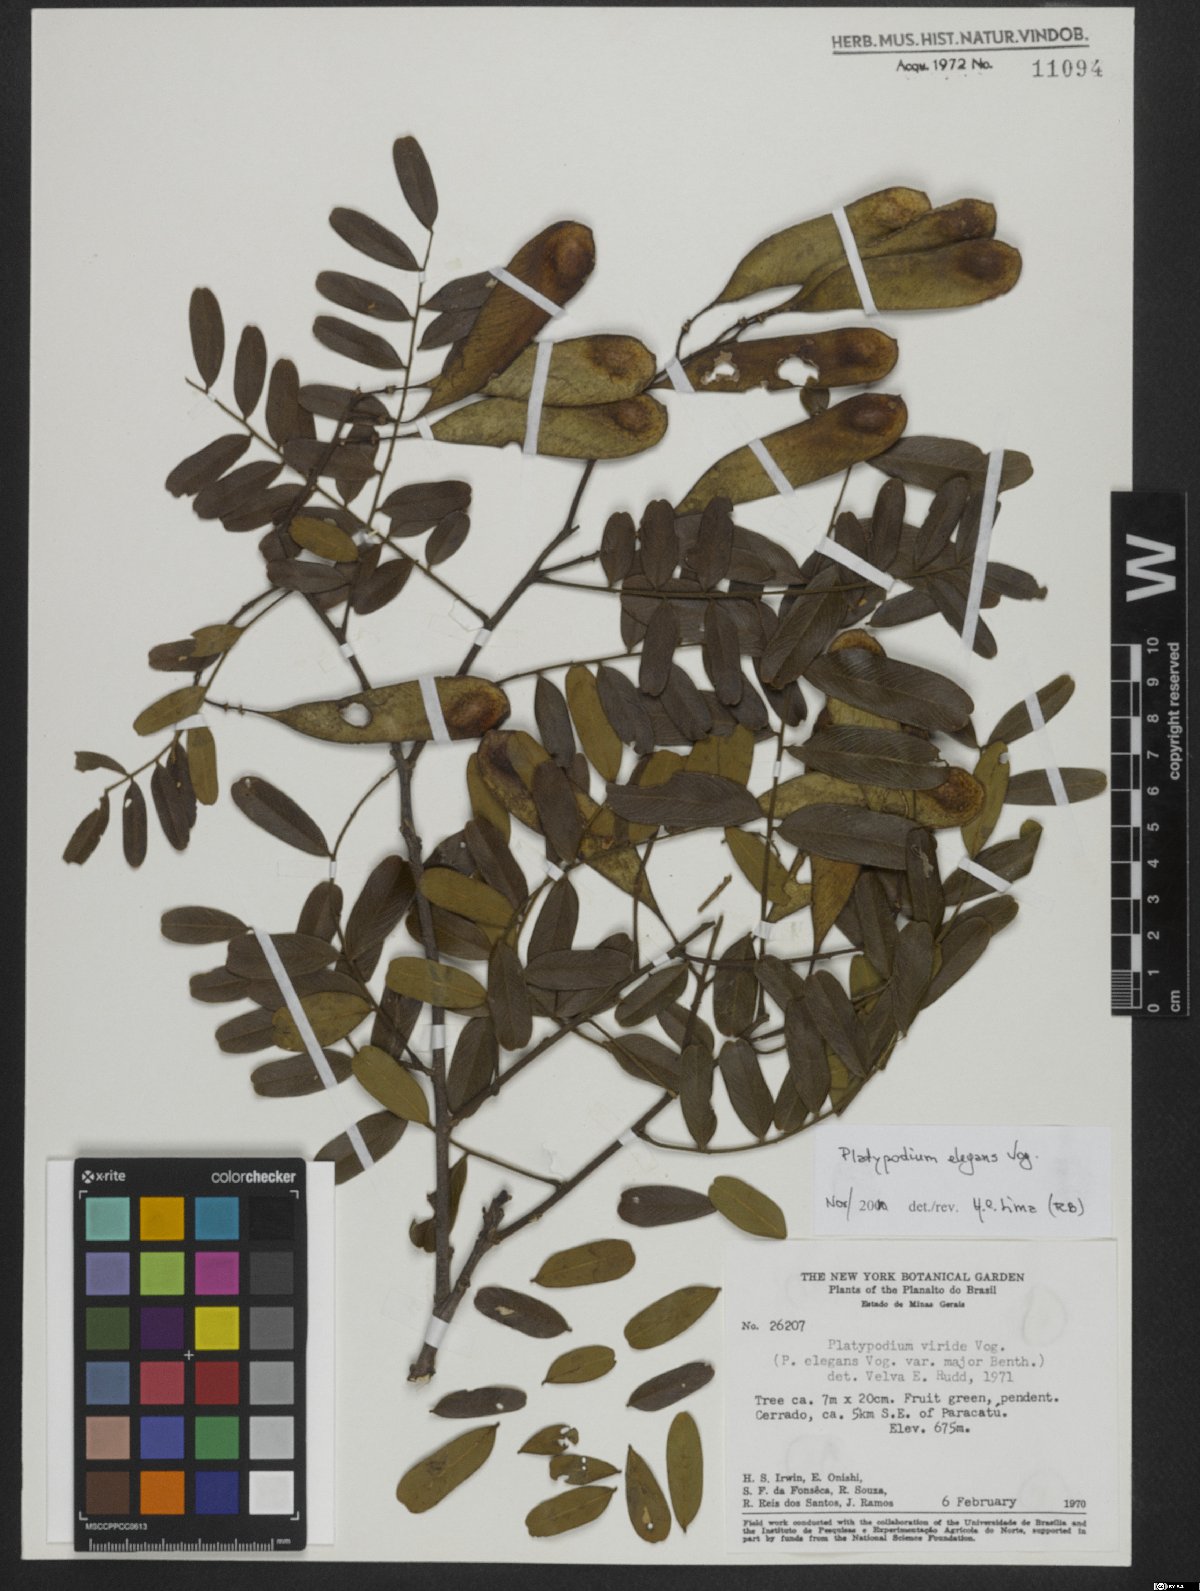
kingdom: Plantae
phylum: Tracheophyta
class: Magnoliopsida
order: Fabales
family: Fabaceae
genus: Platypodium
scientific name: Platypodium elegans
